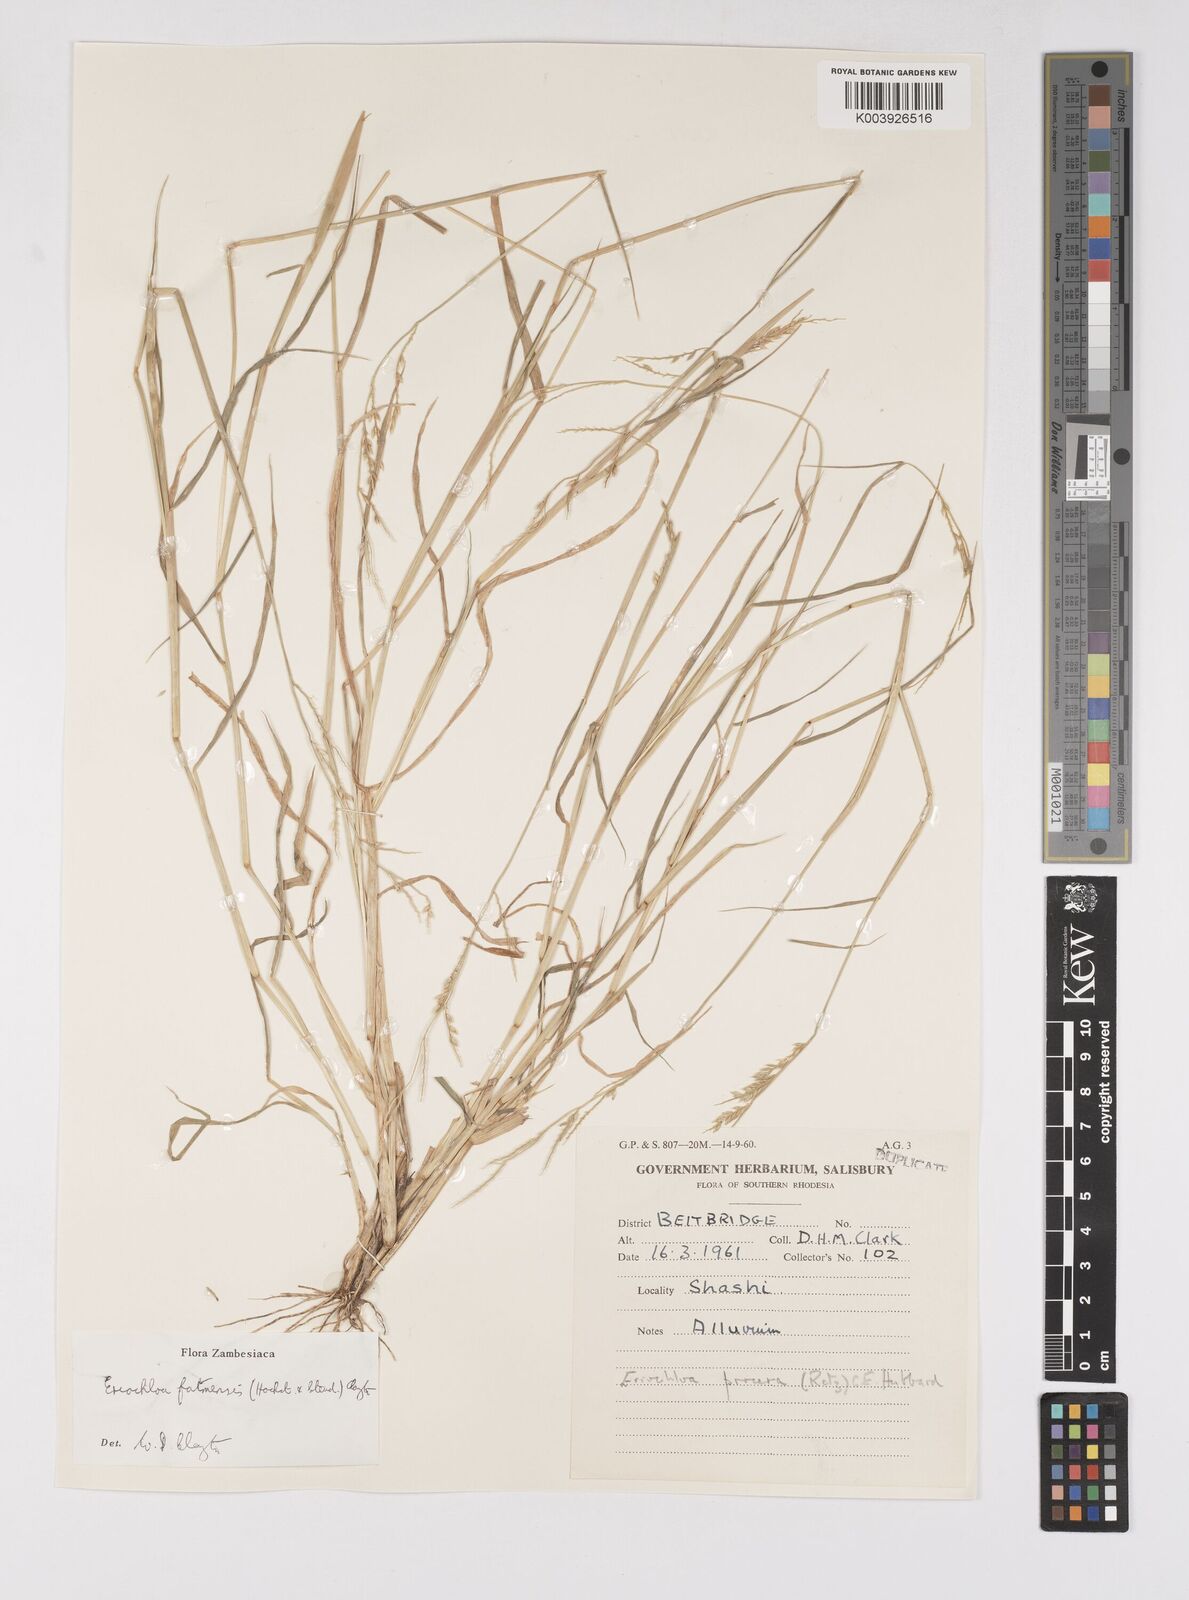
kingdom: Plantae
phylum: Tracheophyta
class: Liliopsida
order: Poales
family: Poaceae
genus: Eriochloa
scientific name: Eriochloa barbatus
